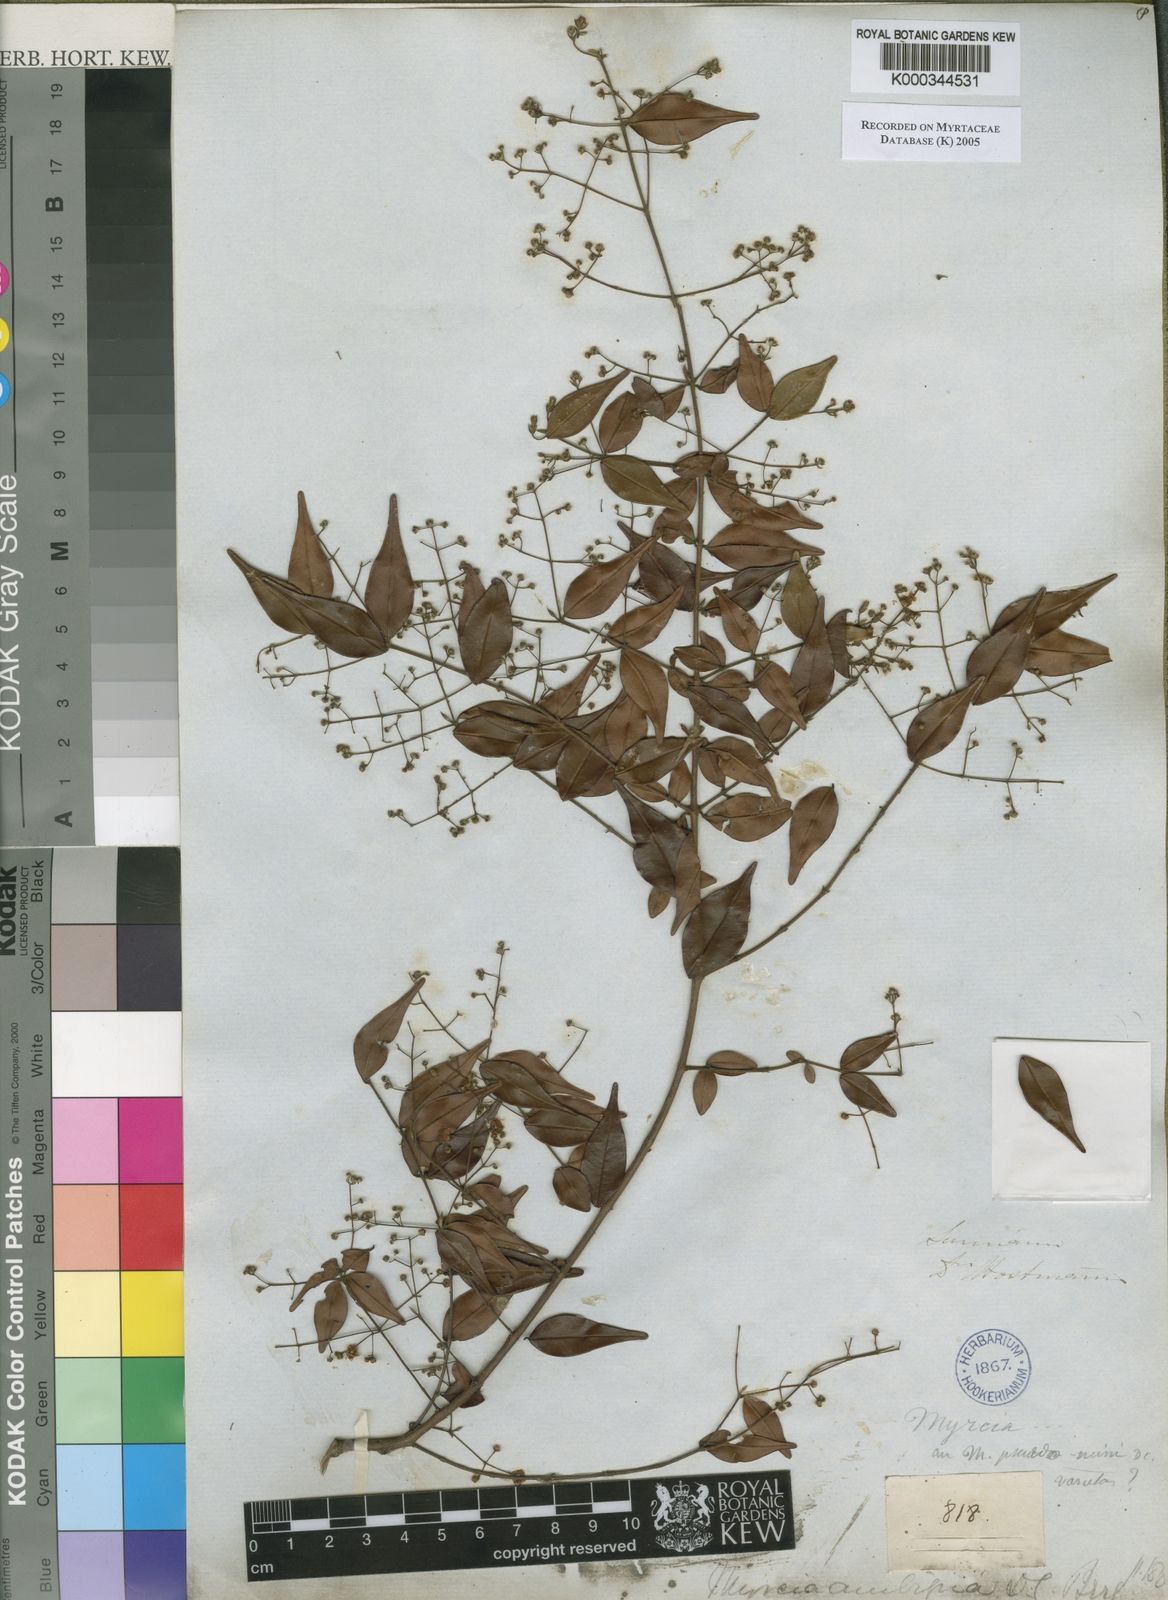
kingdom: Plantae
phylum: Tracheophyta
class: Magnoliopsida
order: Myrtales
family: Myrtaceae
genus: Myrcia
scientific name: Myrcia sylvatica
